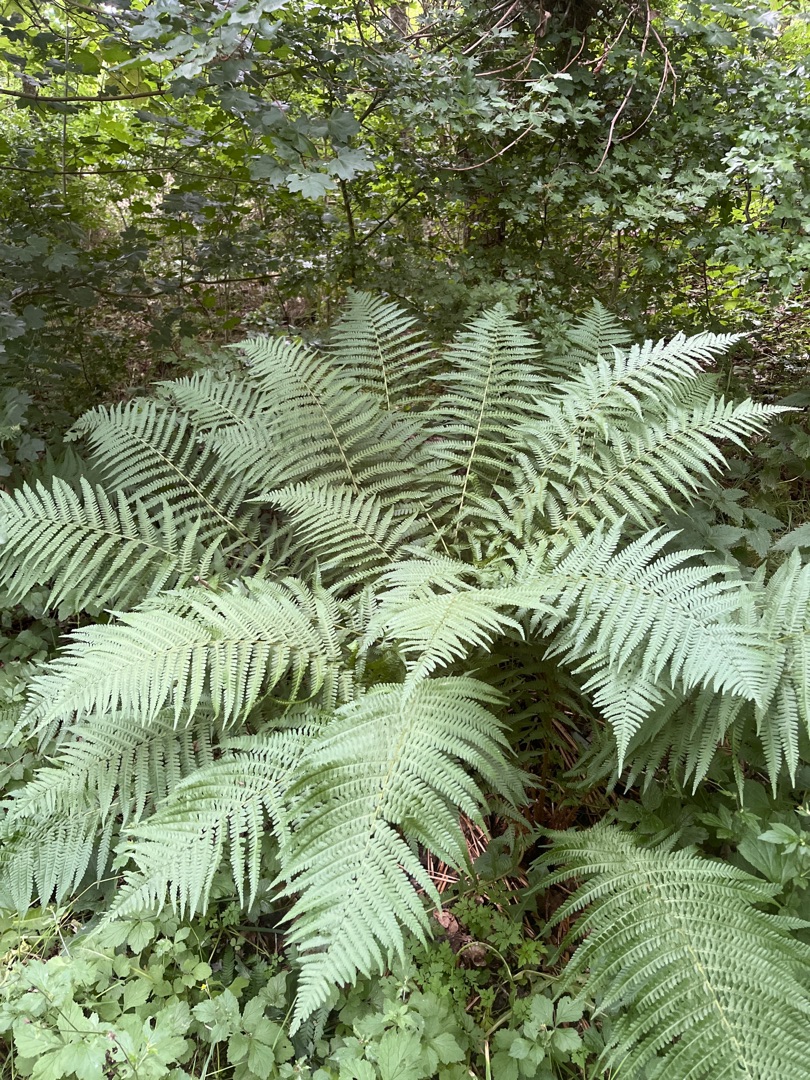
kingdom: Plantae
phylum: Tracheophyta
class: Polypodiopsida
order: Polypodiales
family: Athyriaceae
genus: Athyrium
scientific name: Athyrium filix-femina
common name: Fjerbregne
